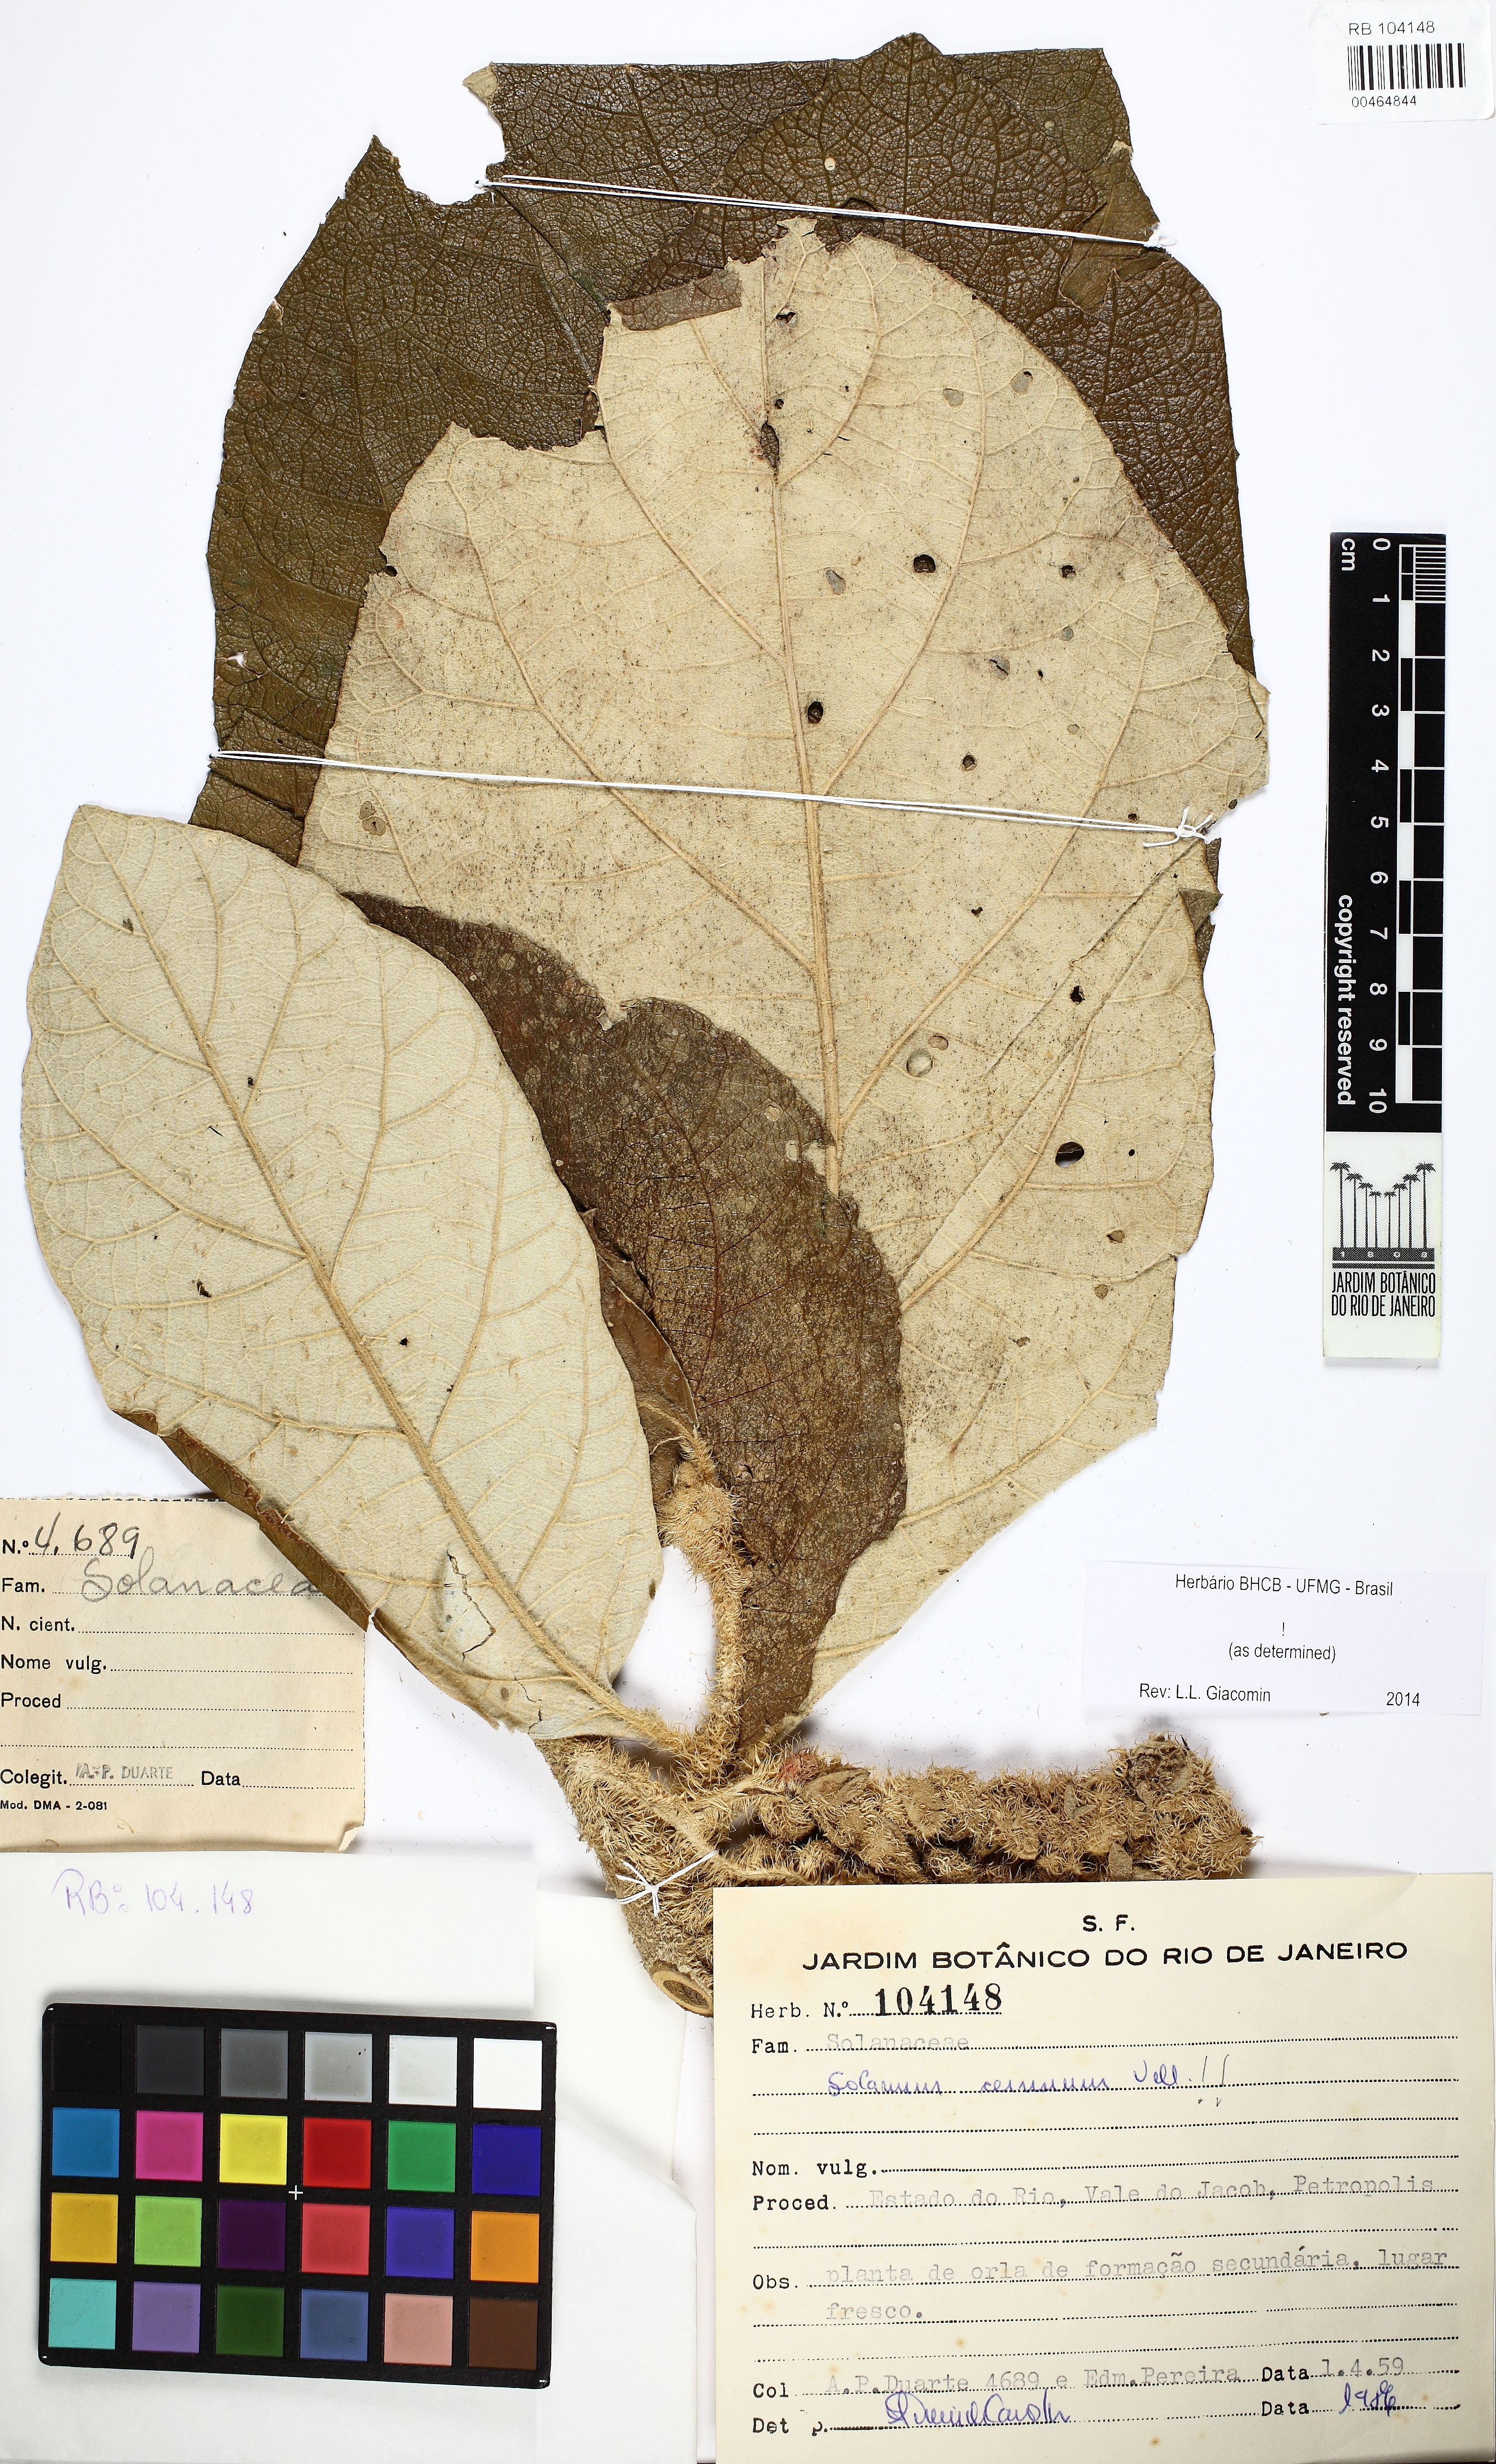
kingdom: Plantae
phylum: Tracheophyta
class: Magnoliopsida
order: Solanales
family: Solanaceae
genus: Solanum
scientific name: Solanum cernuum
